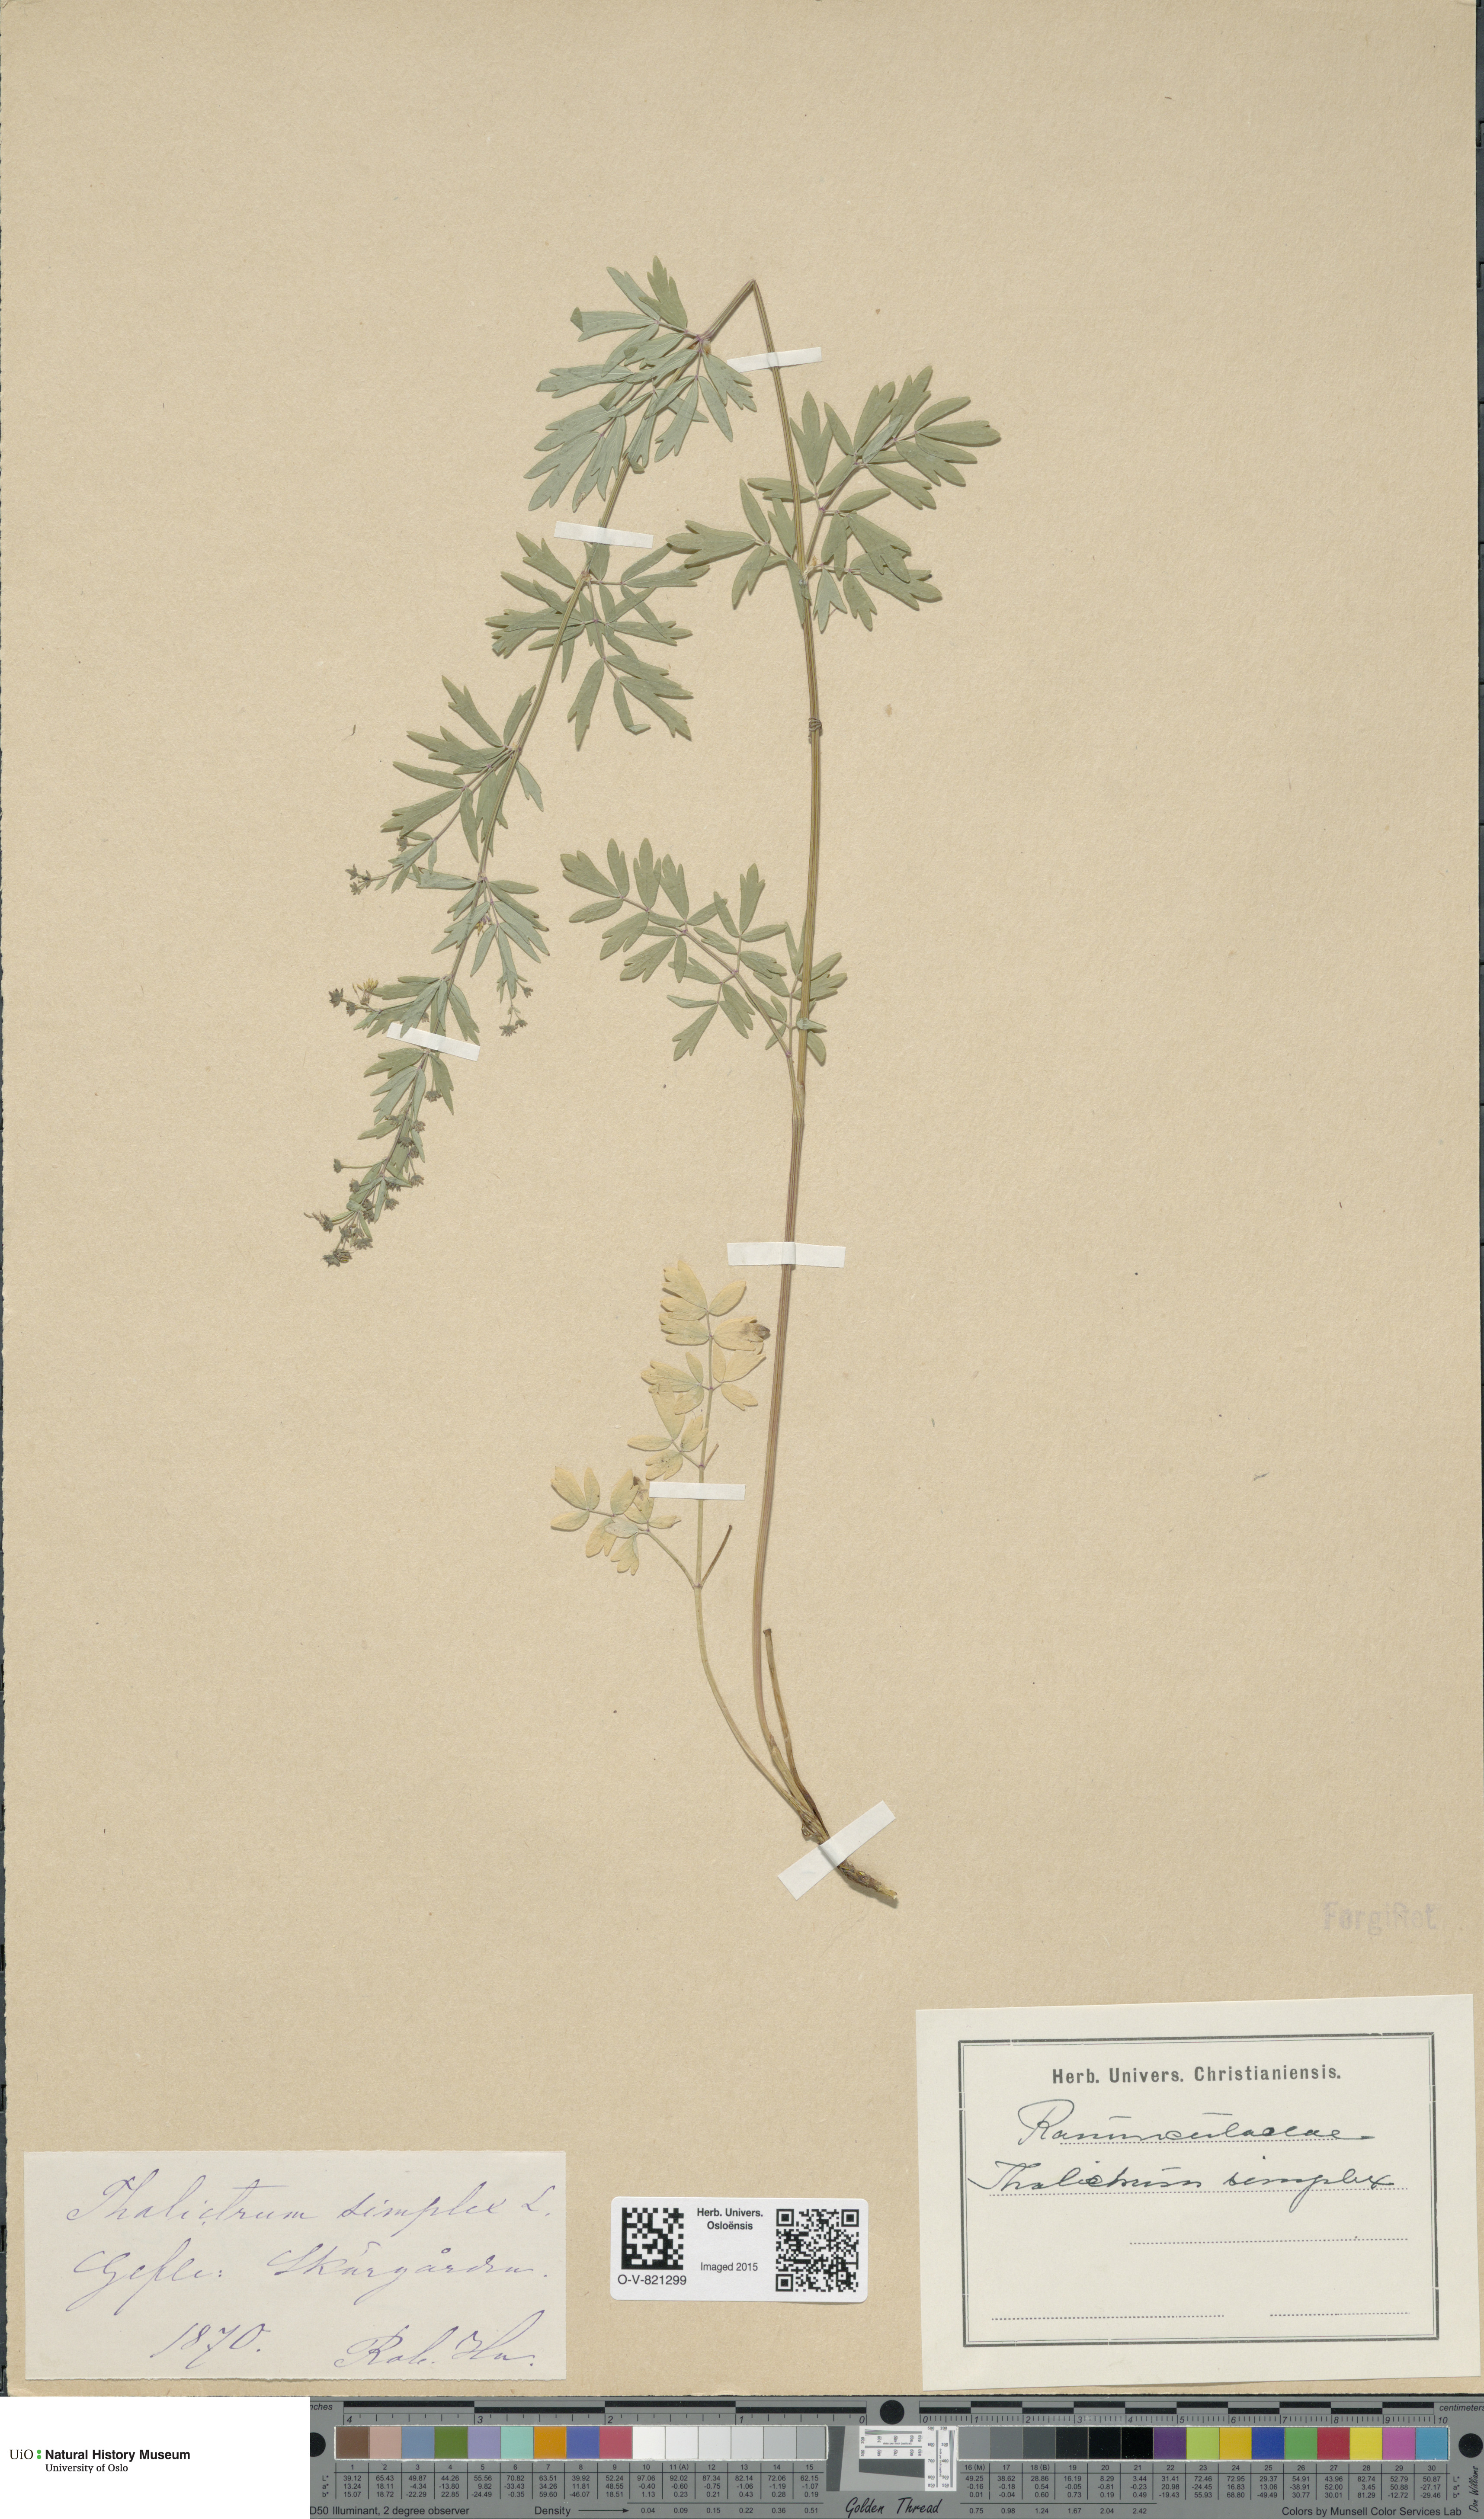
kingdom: Plantae
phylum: Tracheophyta
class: Magnoliopsida
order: Ranunculales
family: Ranunculaceae
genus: Thalictrum
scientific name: Thalictrum simplex
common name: Small meadow-rue
